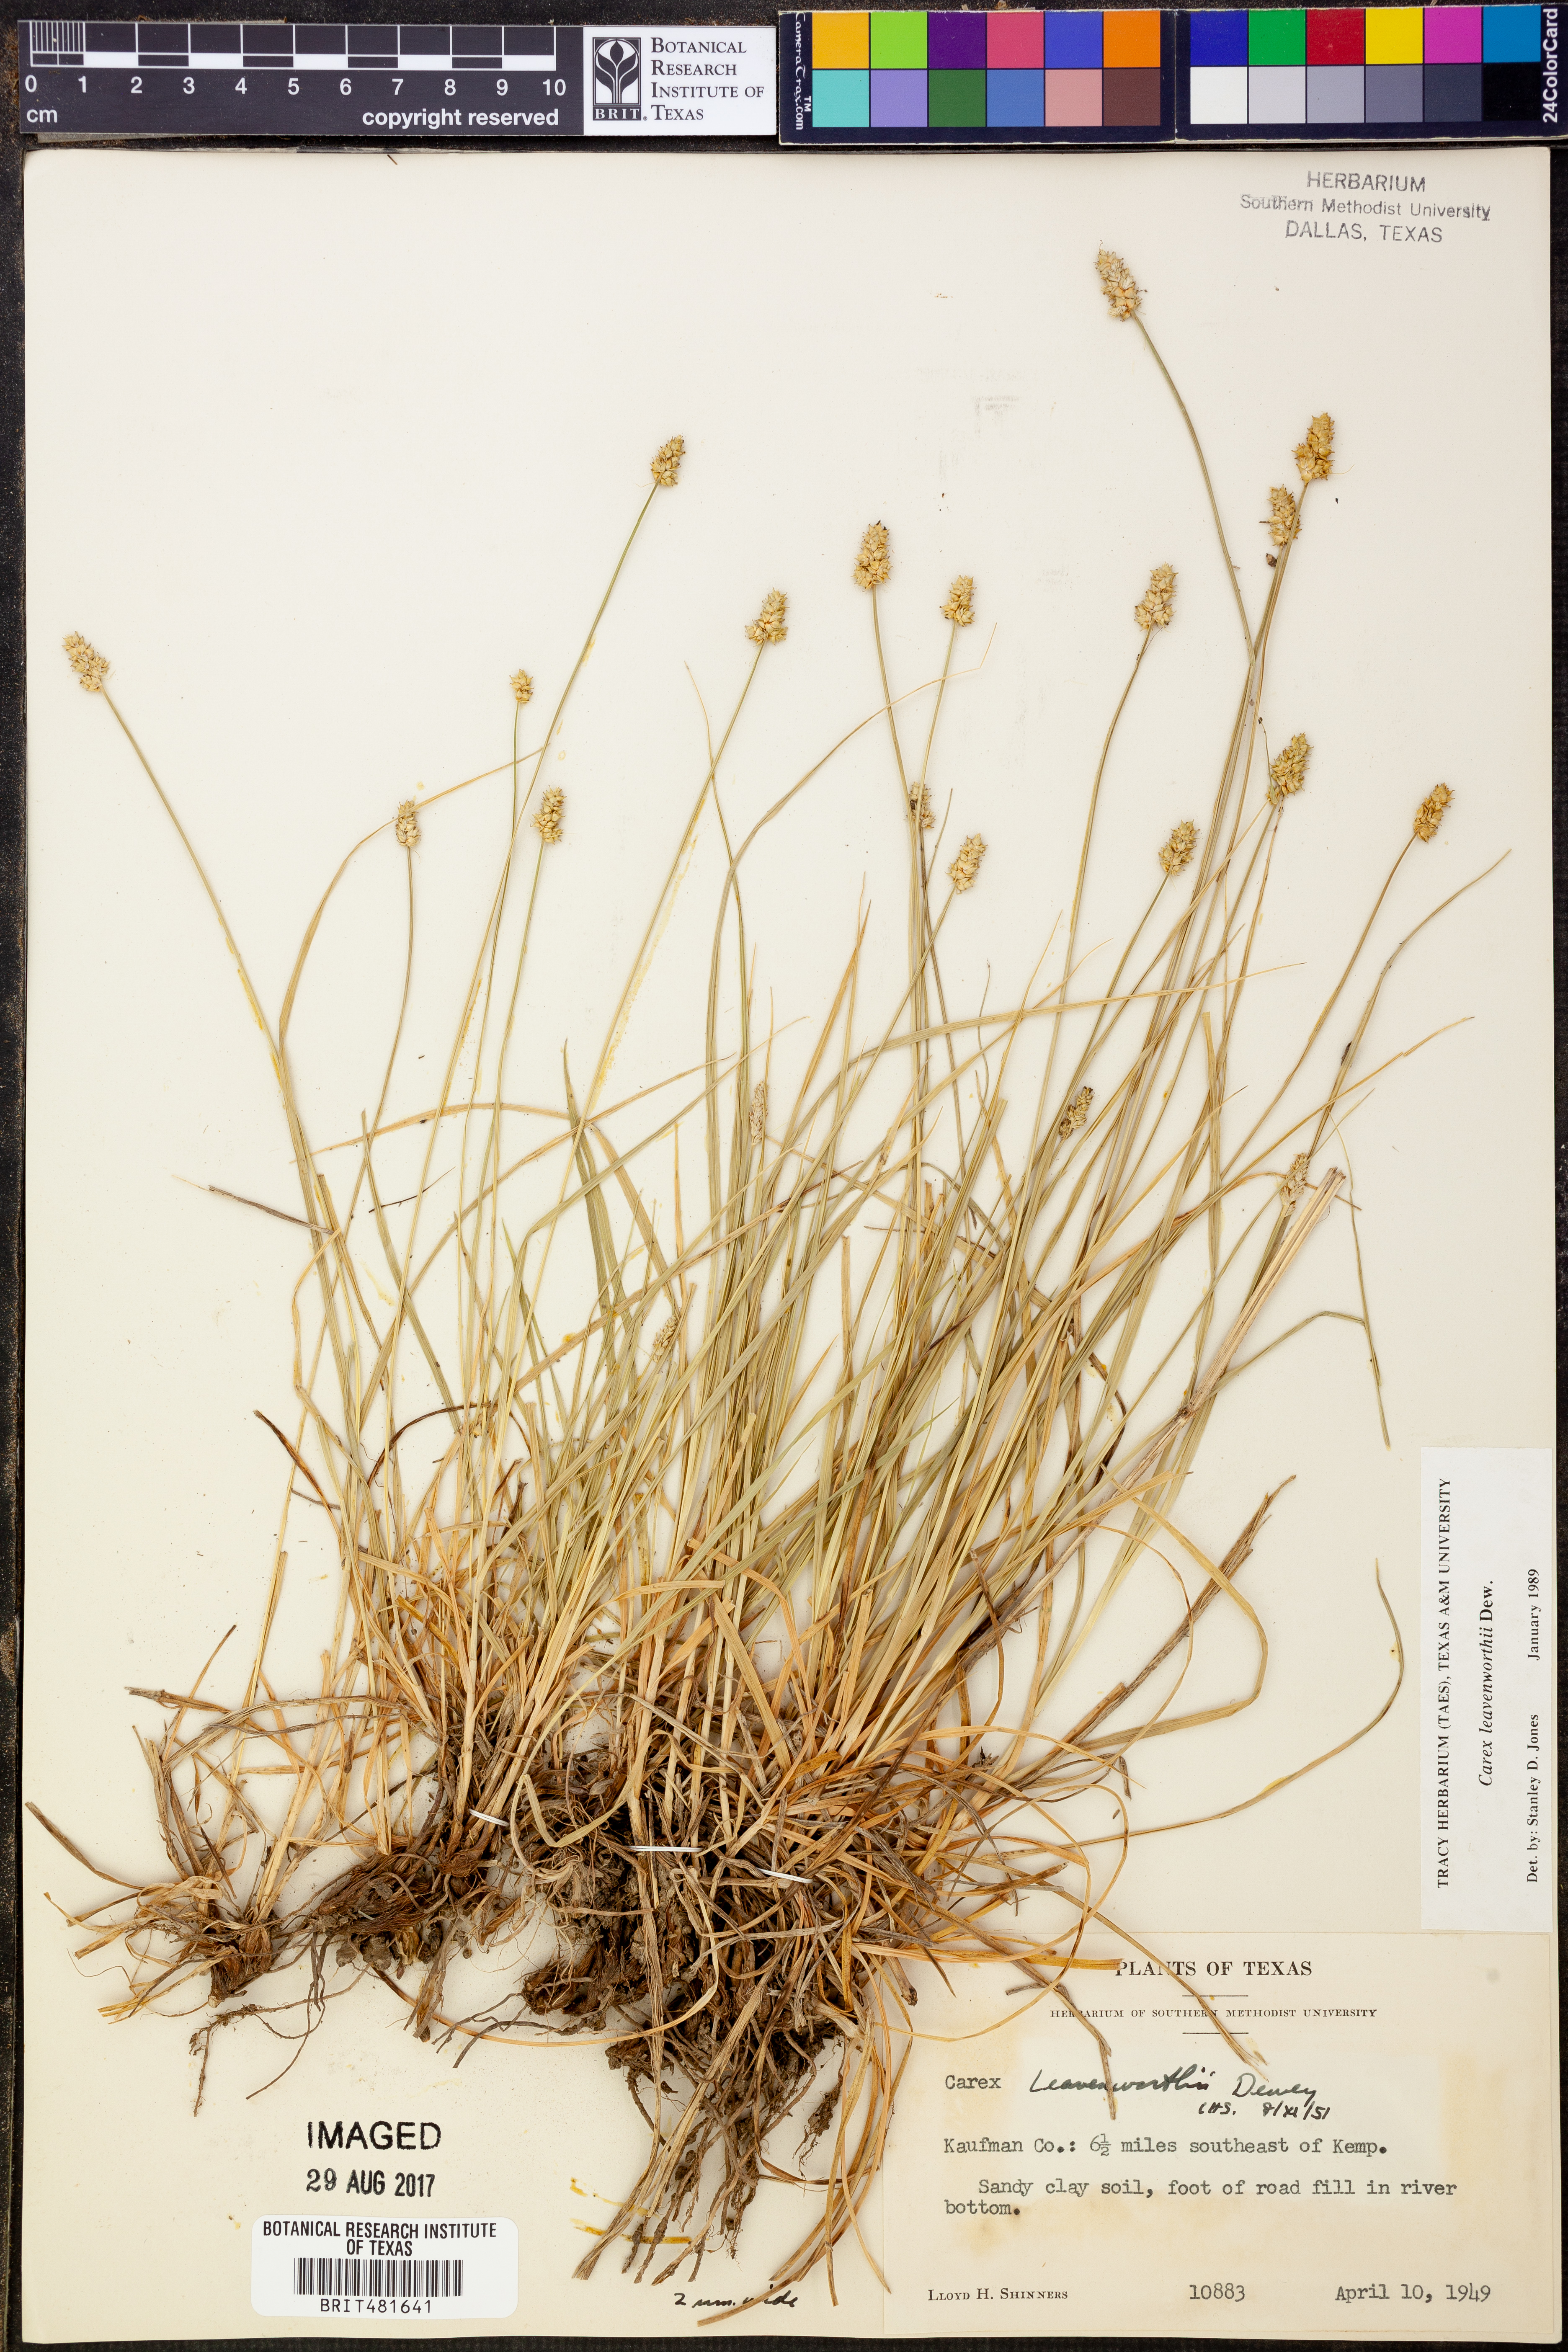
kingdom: Plantae
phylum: Tracheophyta
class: Liliopsida
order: Poales
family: Cyperaceae
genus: Carex
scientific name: Carex leavenworthii
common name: Leavenworth's bracted sedge
